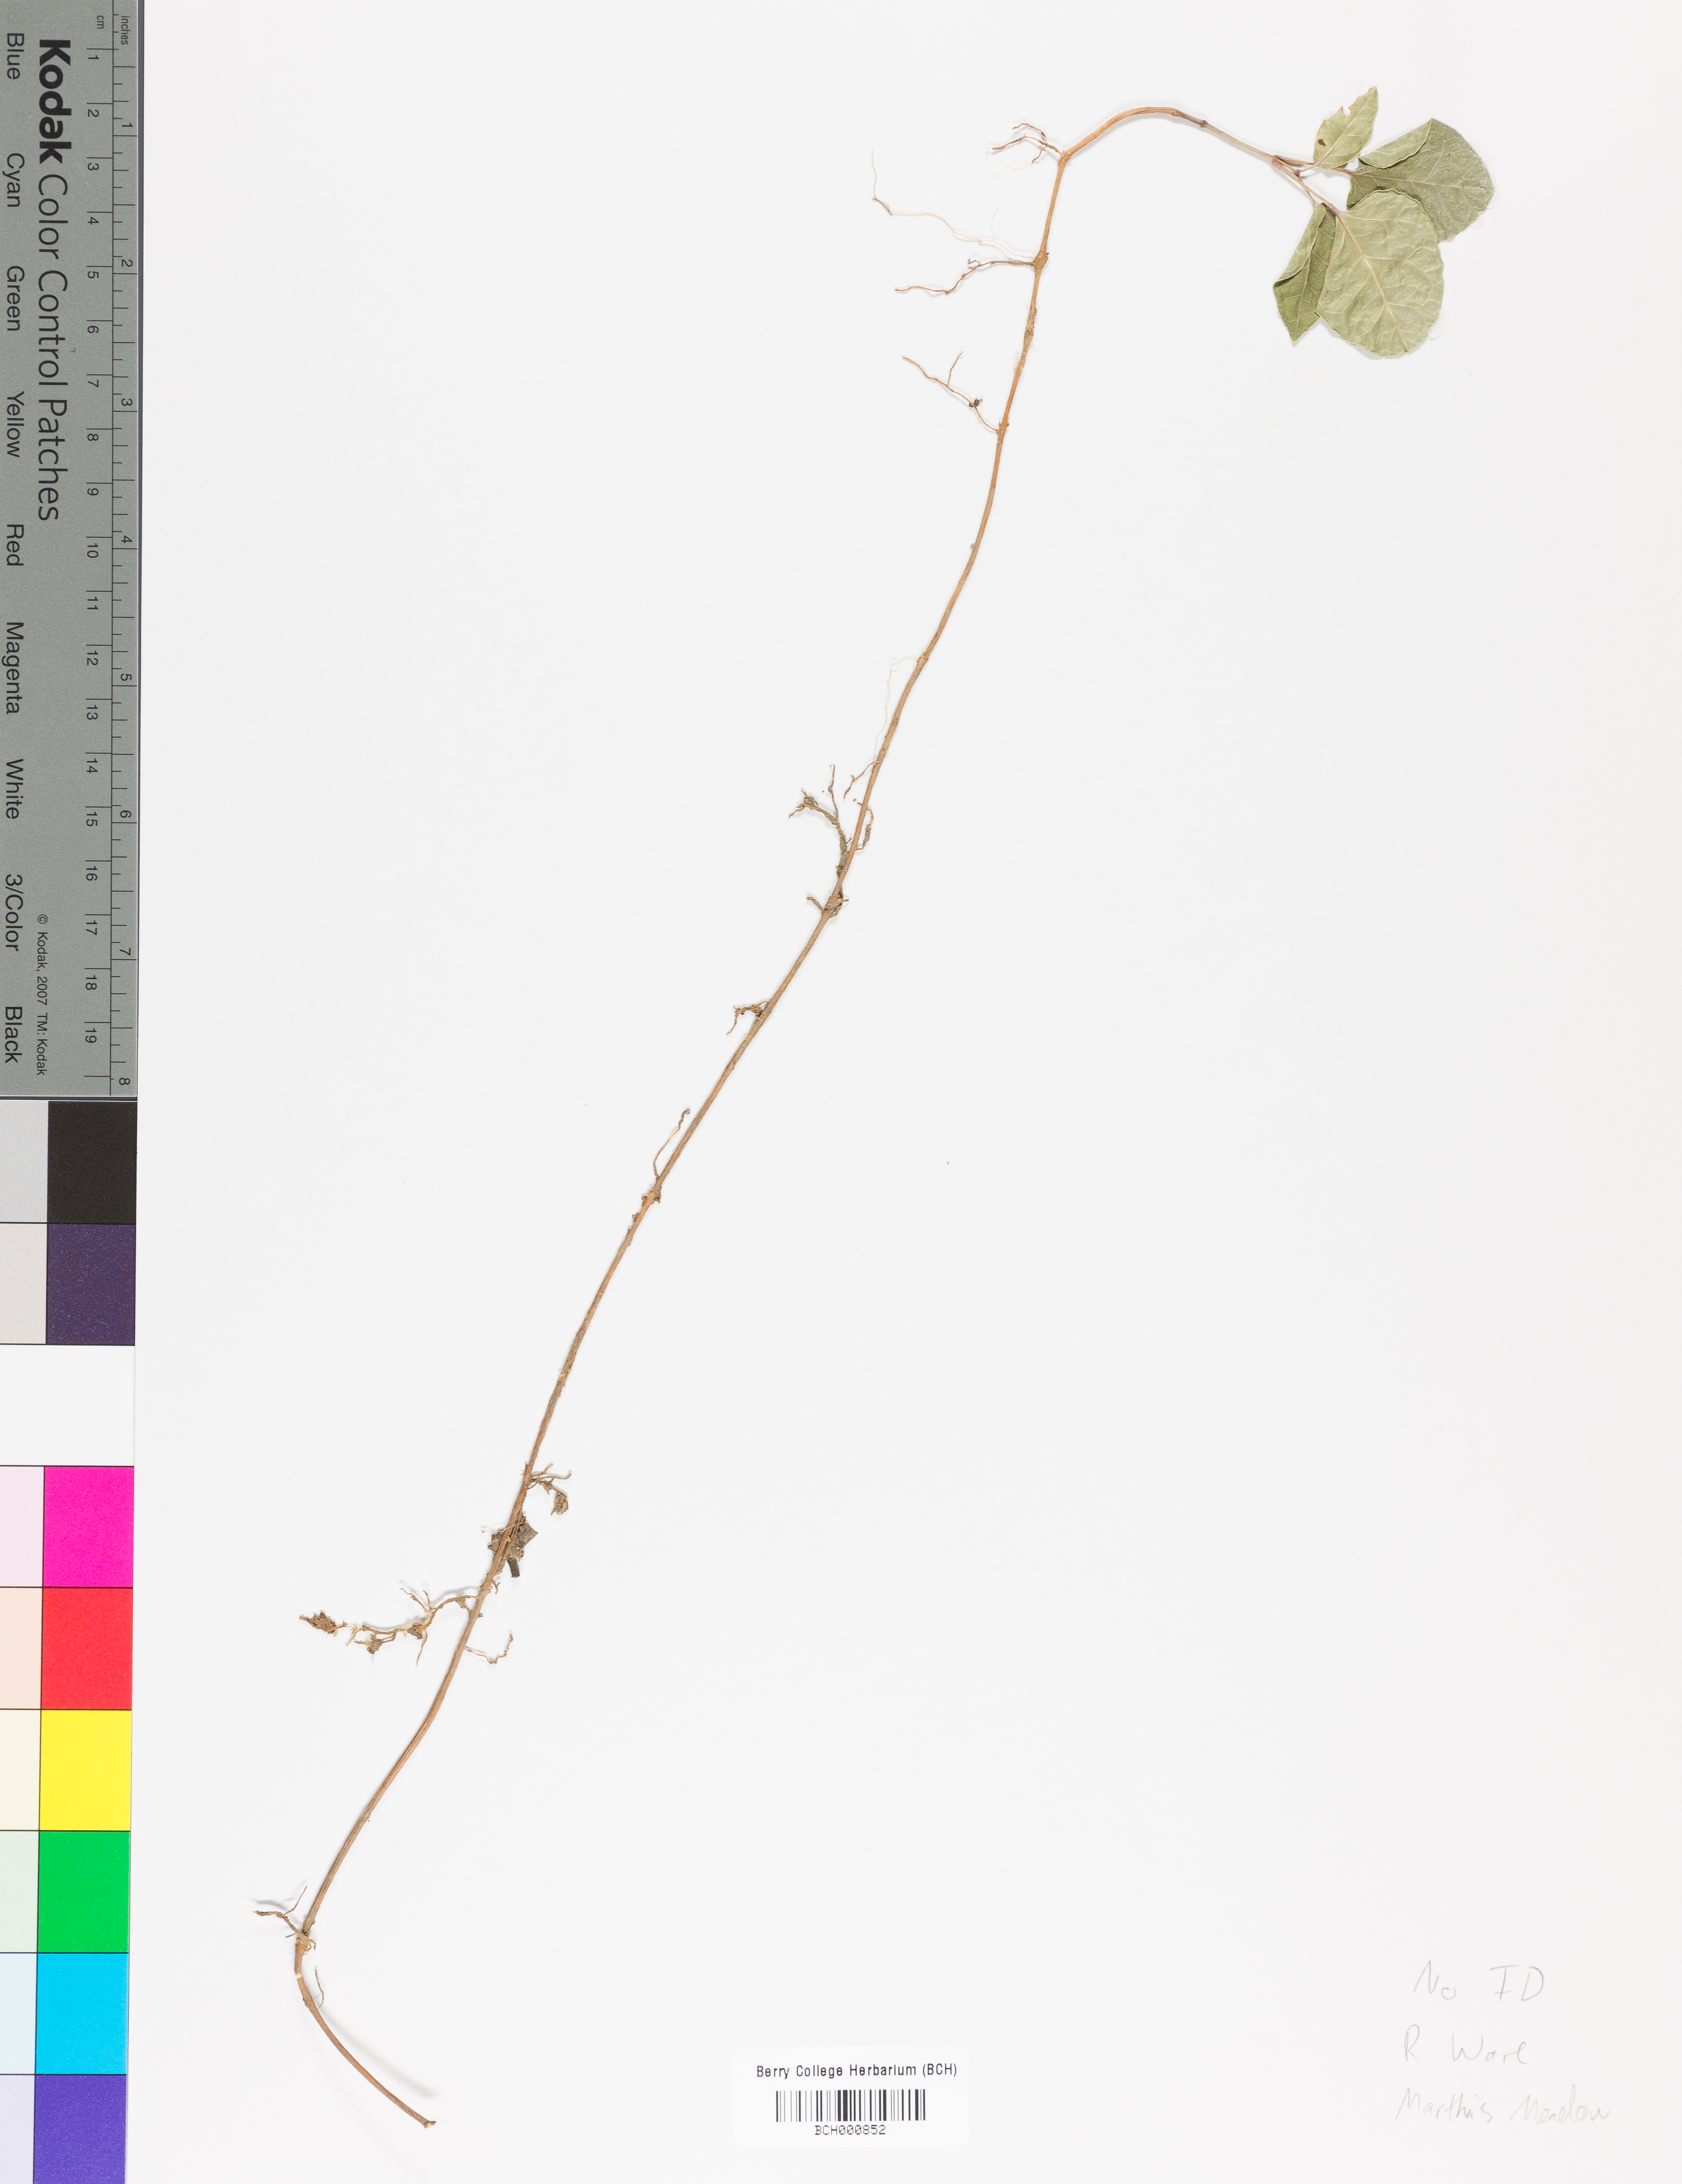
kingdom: Plantae
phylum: Tracheophyta
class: Magnoliopsida
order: Lamiales
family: Acanthaceae
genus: Adhatoda
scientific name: Adhatoda
